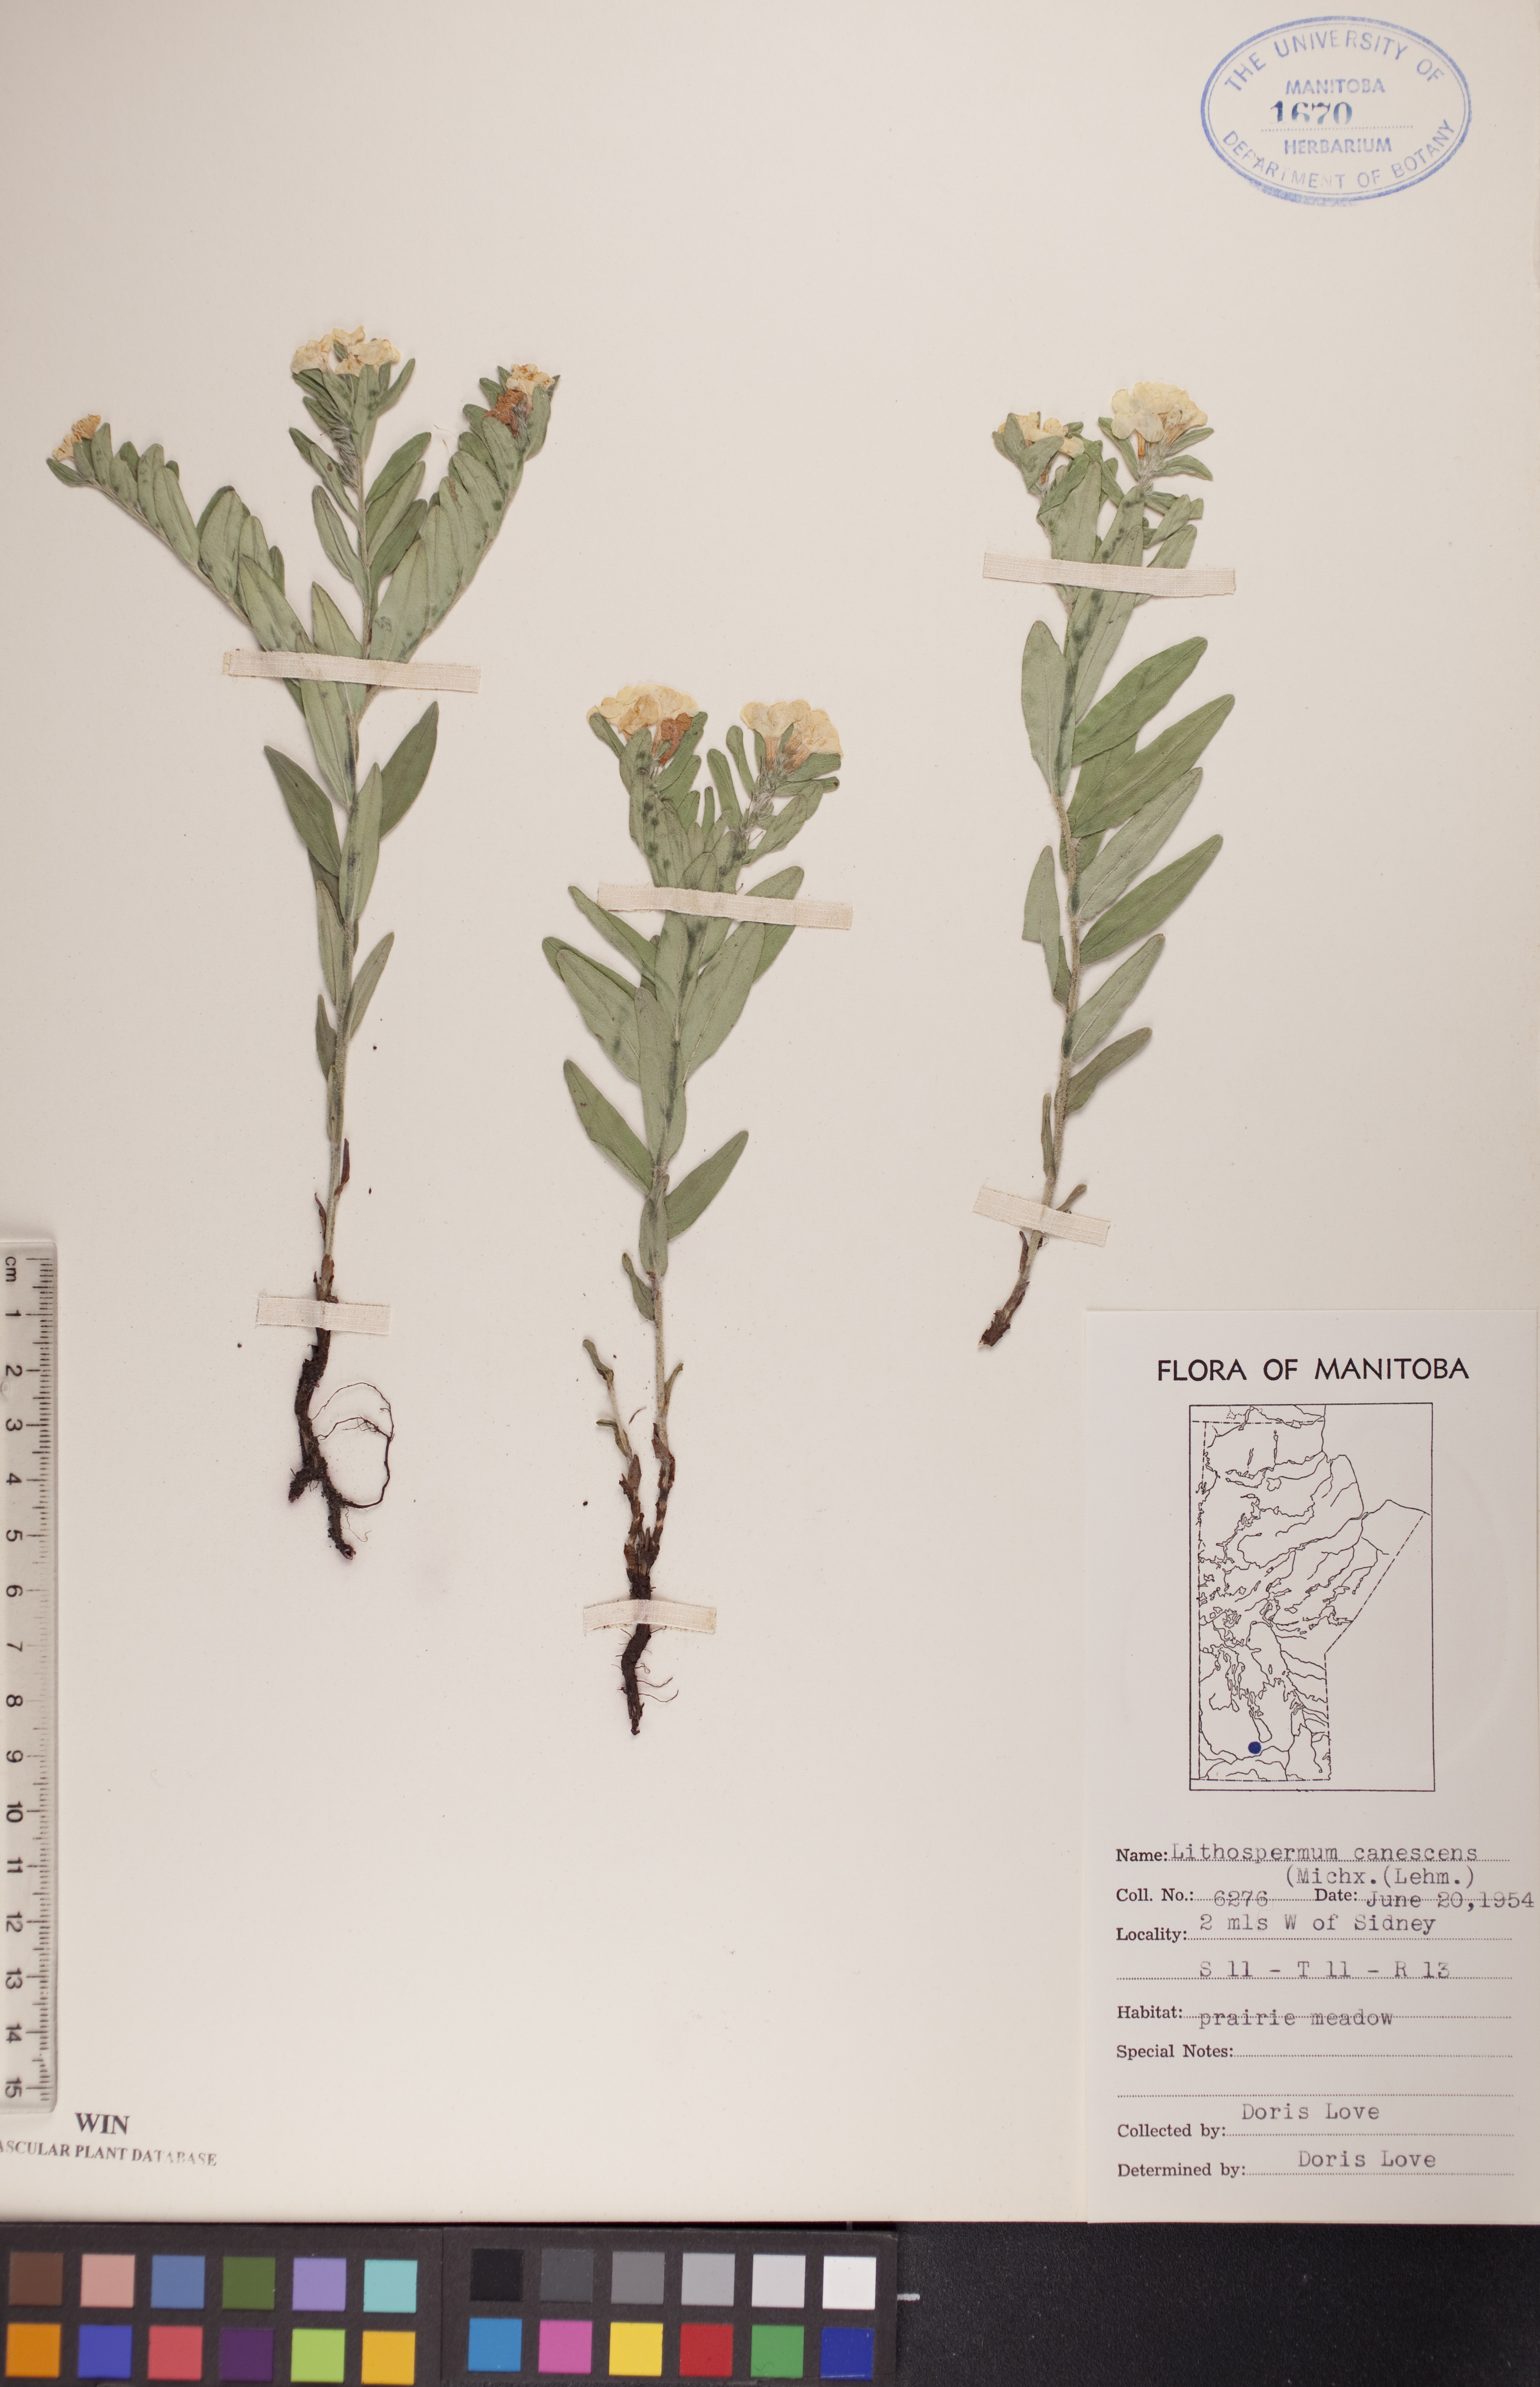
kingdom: Plantae
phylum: Tracheophyta
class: Magnoliopsida
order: Boraginales
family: Boraginaceae
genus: Lithospermum
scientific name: Lithospermum canescens
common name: Hoary puccoon
